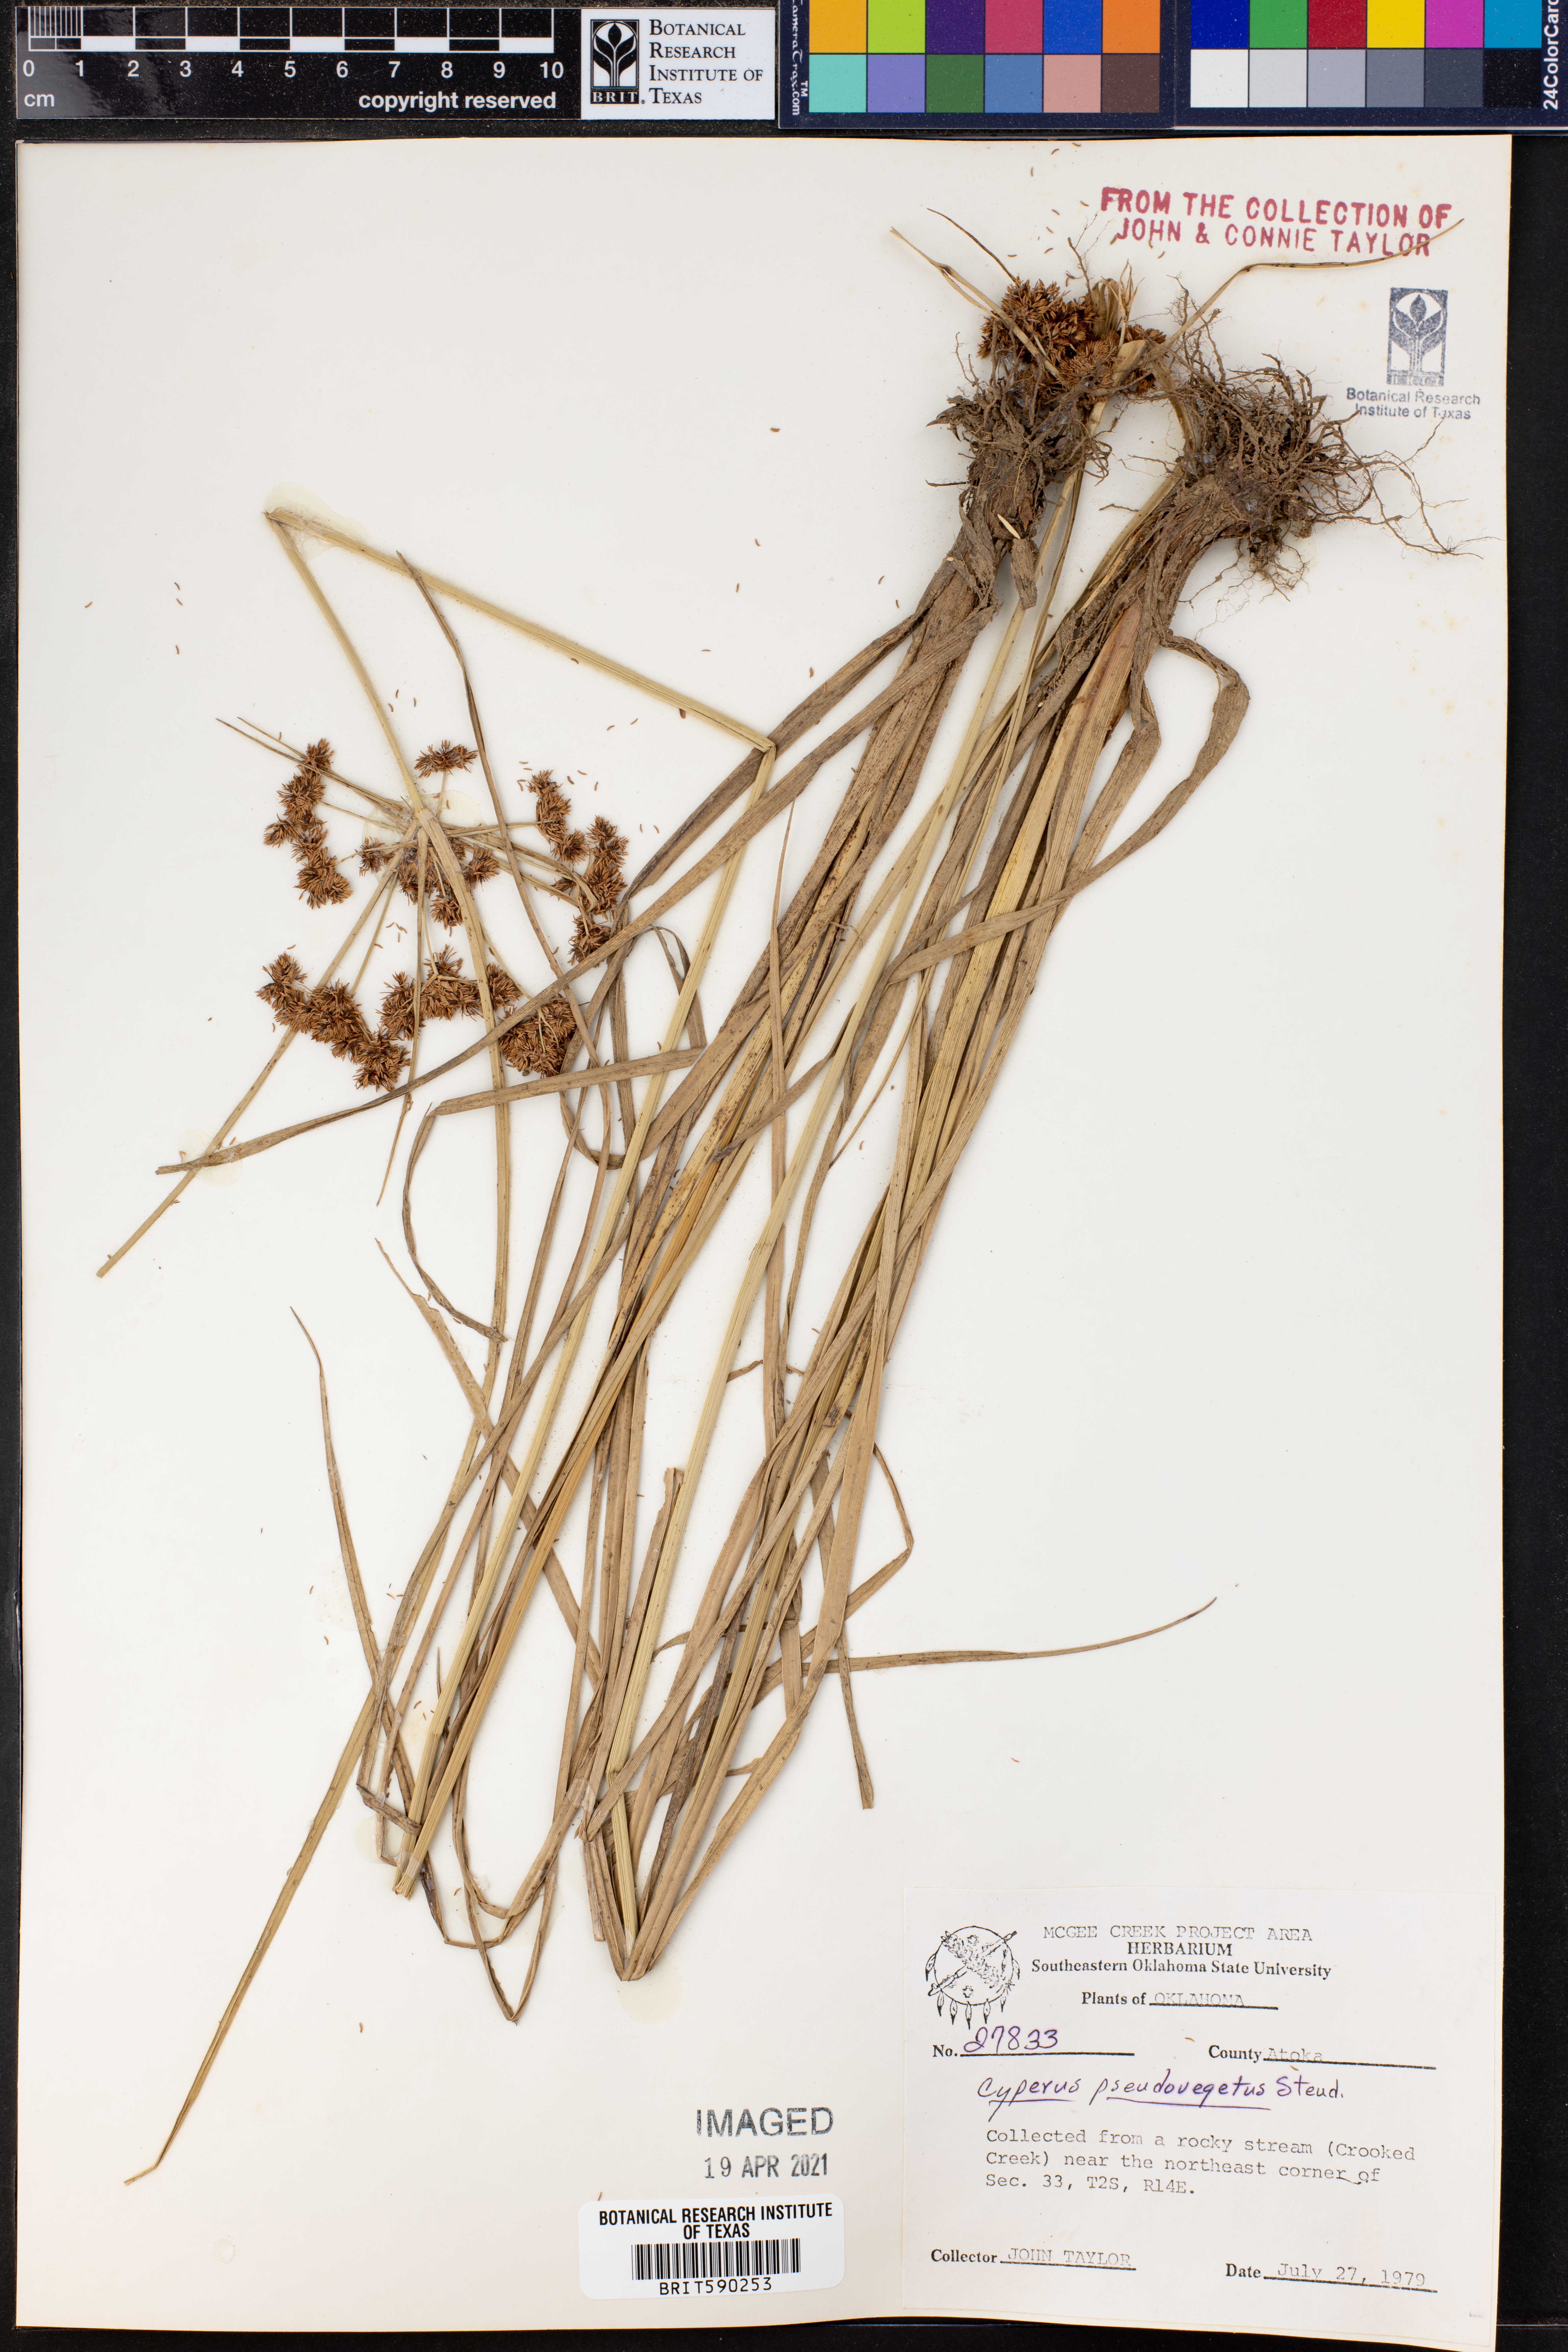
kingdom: Plantae
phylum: Tracheophyta
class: Liliopsida
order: Poales
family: Cyperaceae
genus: Cyperus
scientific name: Cyperus pseudovegetus
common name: Marsh flat sedge
